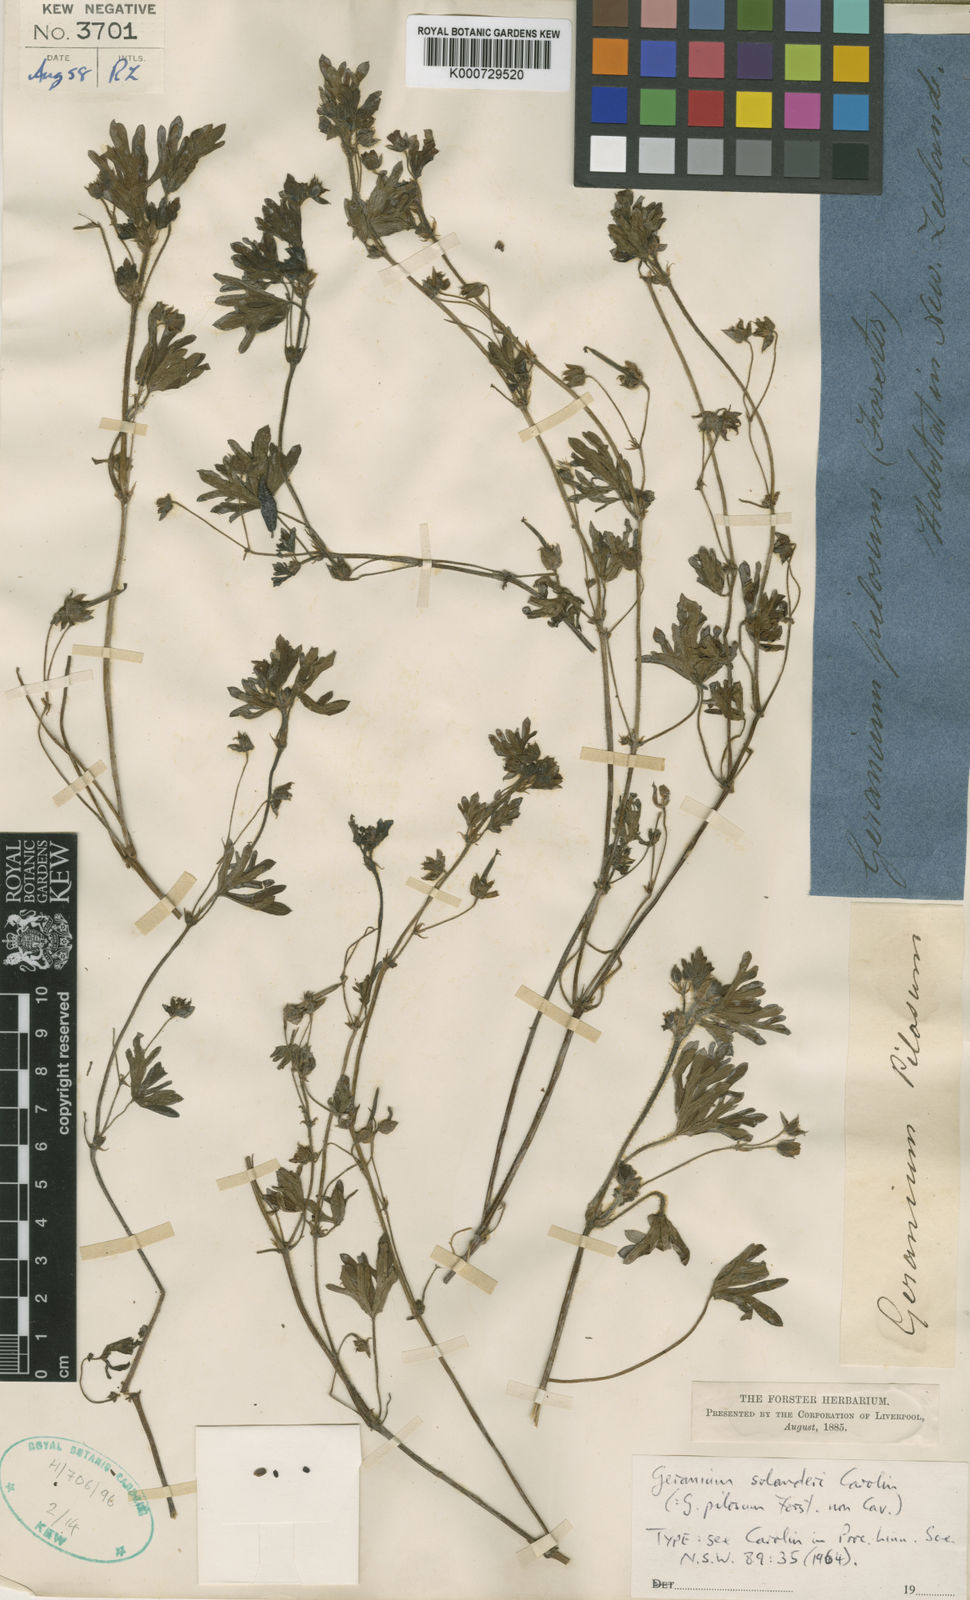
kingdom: Plantae
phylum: Tracheophyta
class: Magnoliopsida
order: Geraniales
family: Geraniaceae
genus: Geranium
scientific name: Geranium solanderi
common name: Solander's geranium
